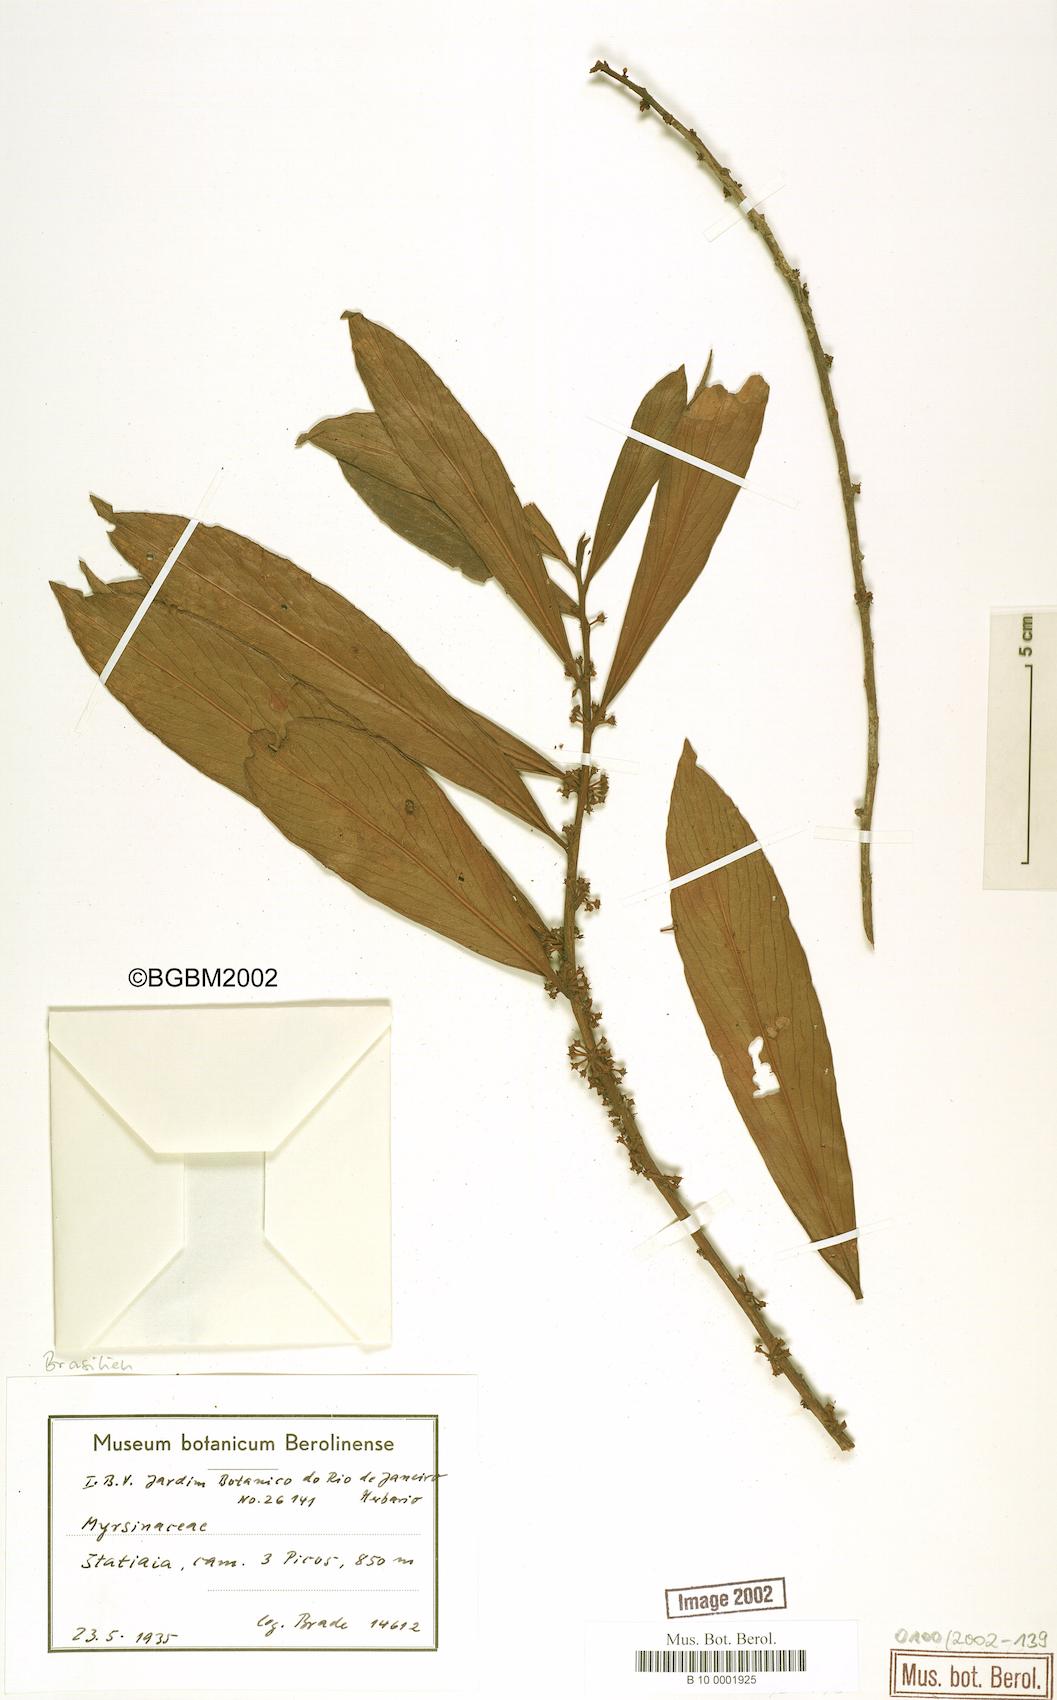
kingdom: Plantae
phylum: Tracheophyta
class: Magnoliopsida
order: Ericales
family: Primulaceae
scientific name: Primulaceae
